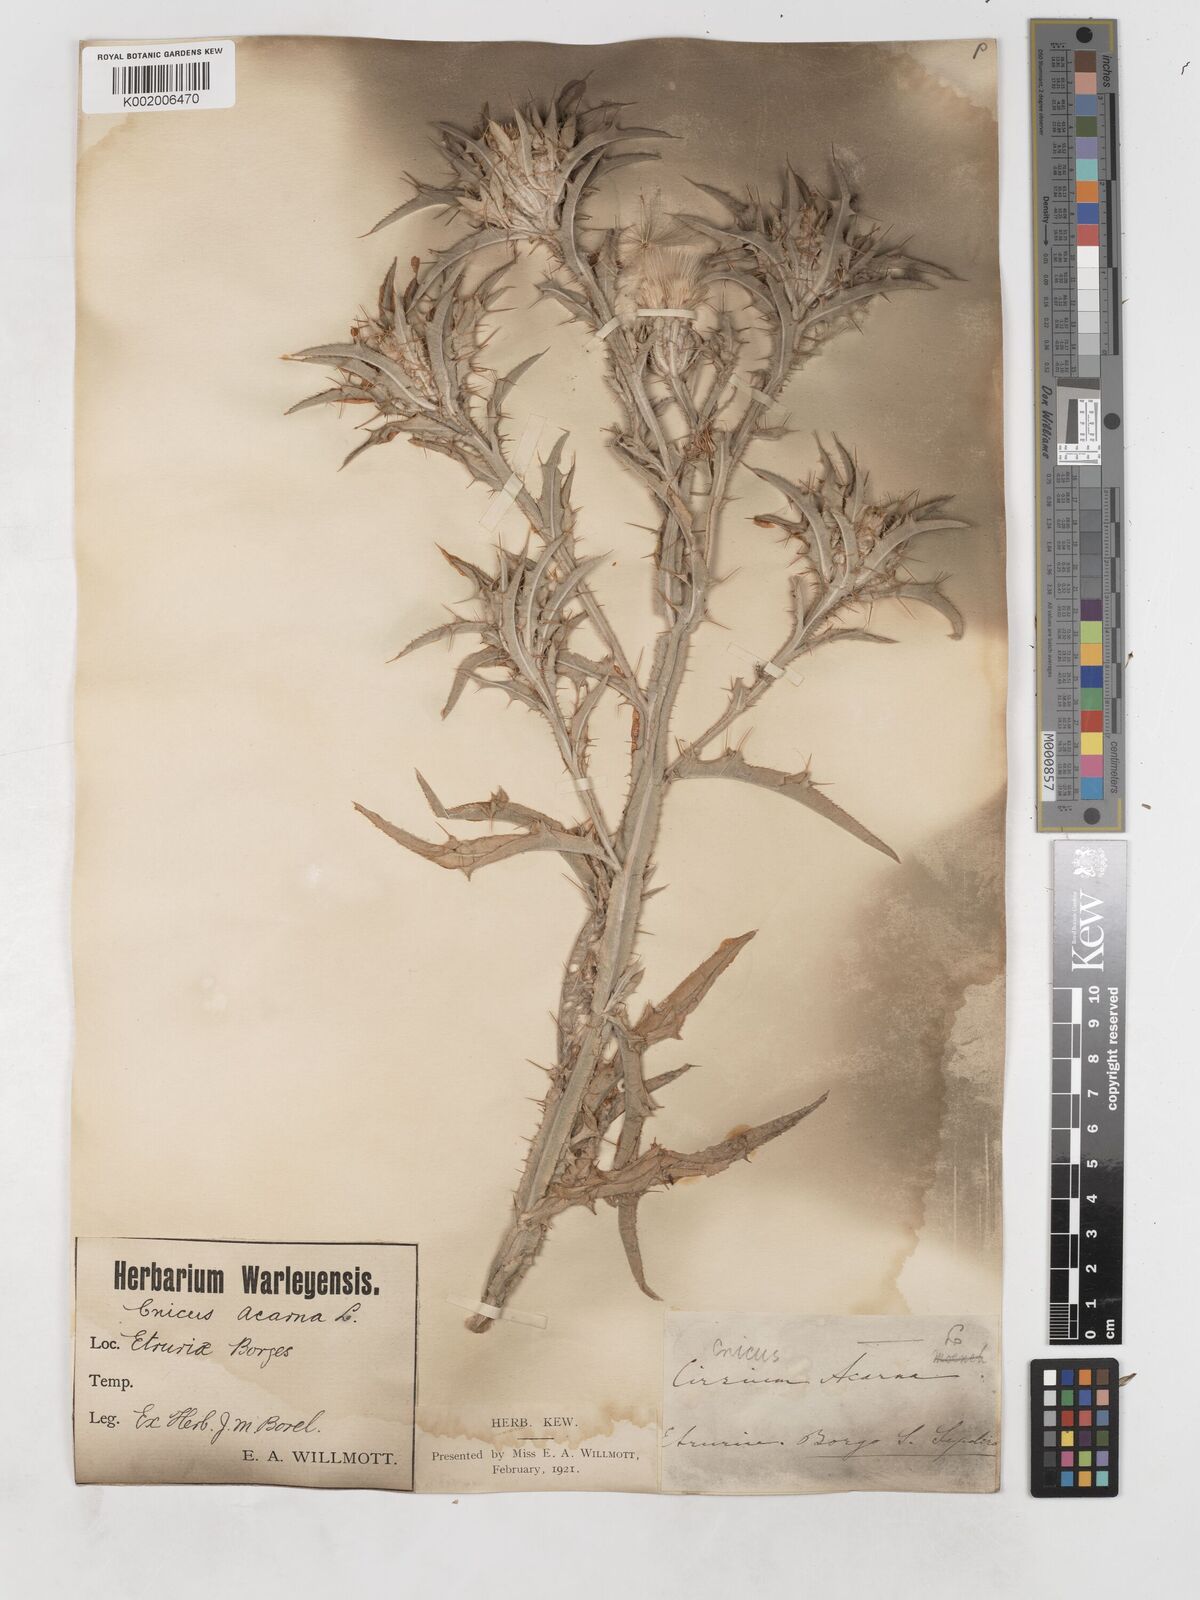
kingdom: Plantae
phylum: Tracheophyta
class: Magnoliopsida
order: Asterales
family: Asteraceae
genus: Picnomon
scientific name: Picnomon acarna
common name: Soldier thistle
